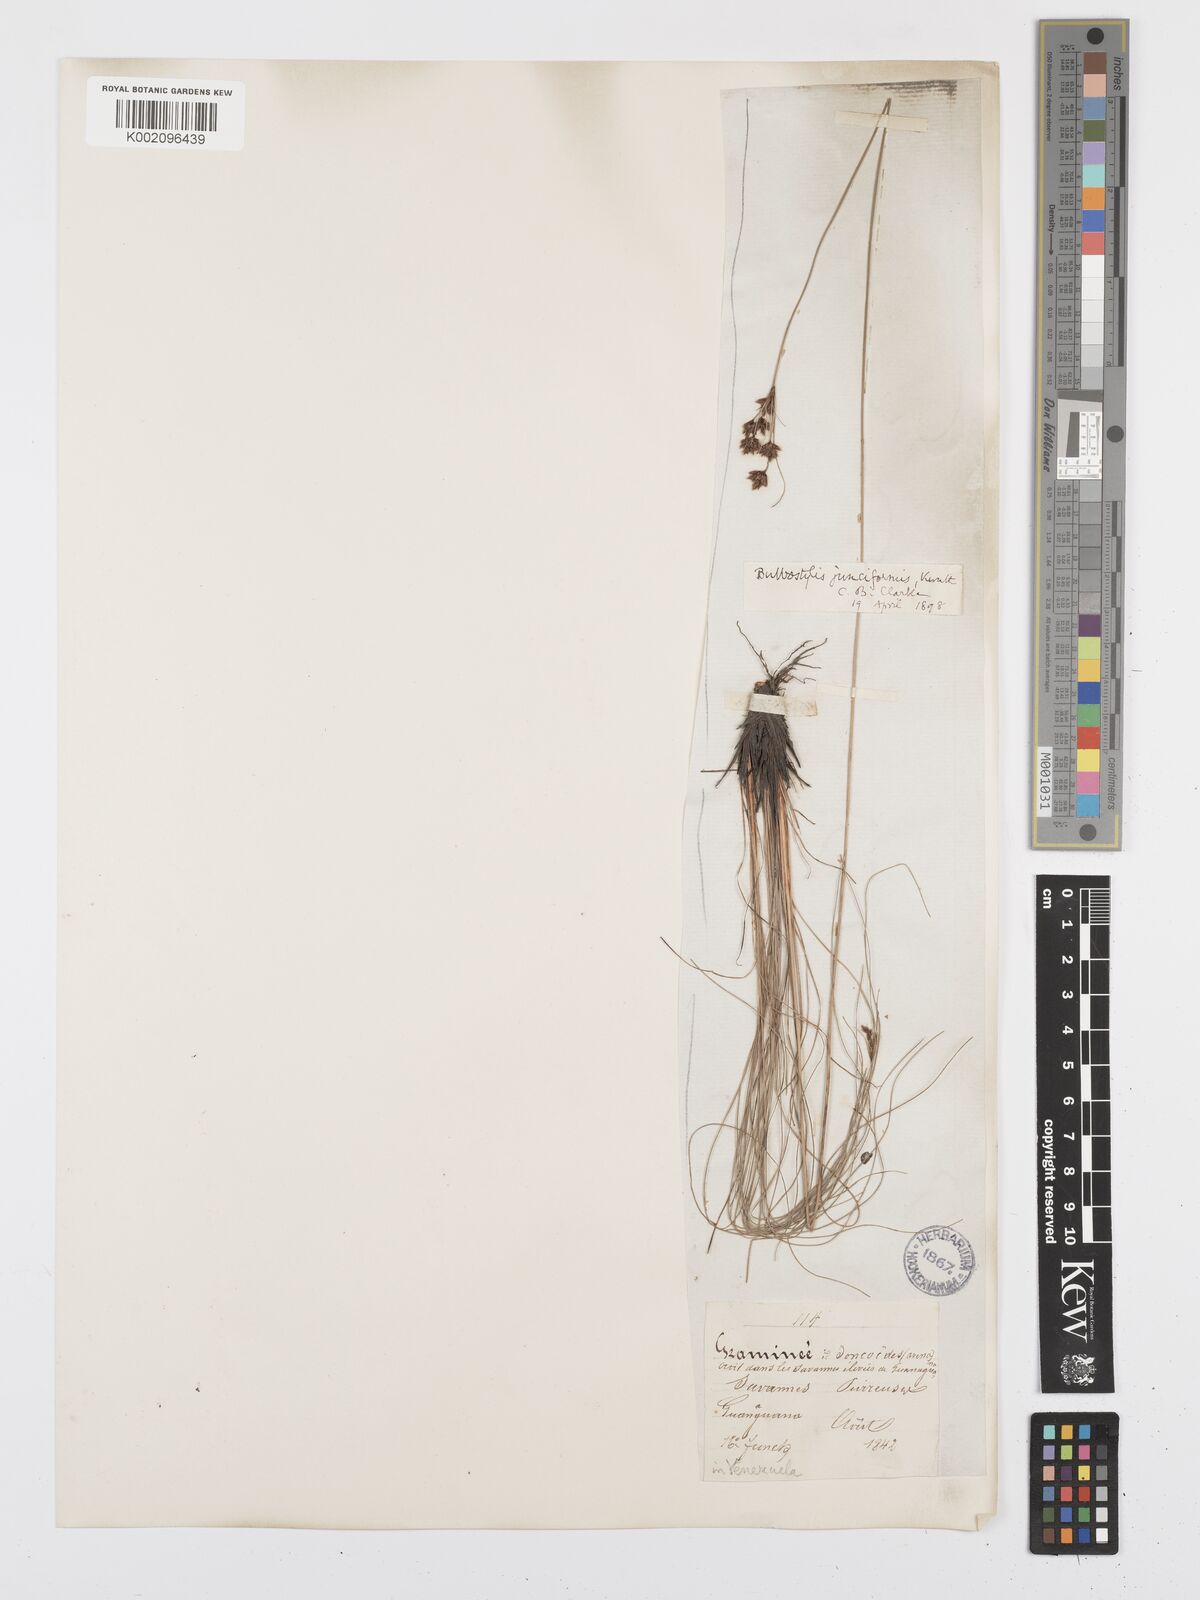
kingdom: Plantae
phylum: Tracheophyta
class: Liliopsida
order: Poales
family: Cyperaceae
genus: Bulbostylis
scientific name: Bulbostylis junciformis
